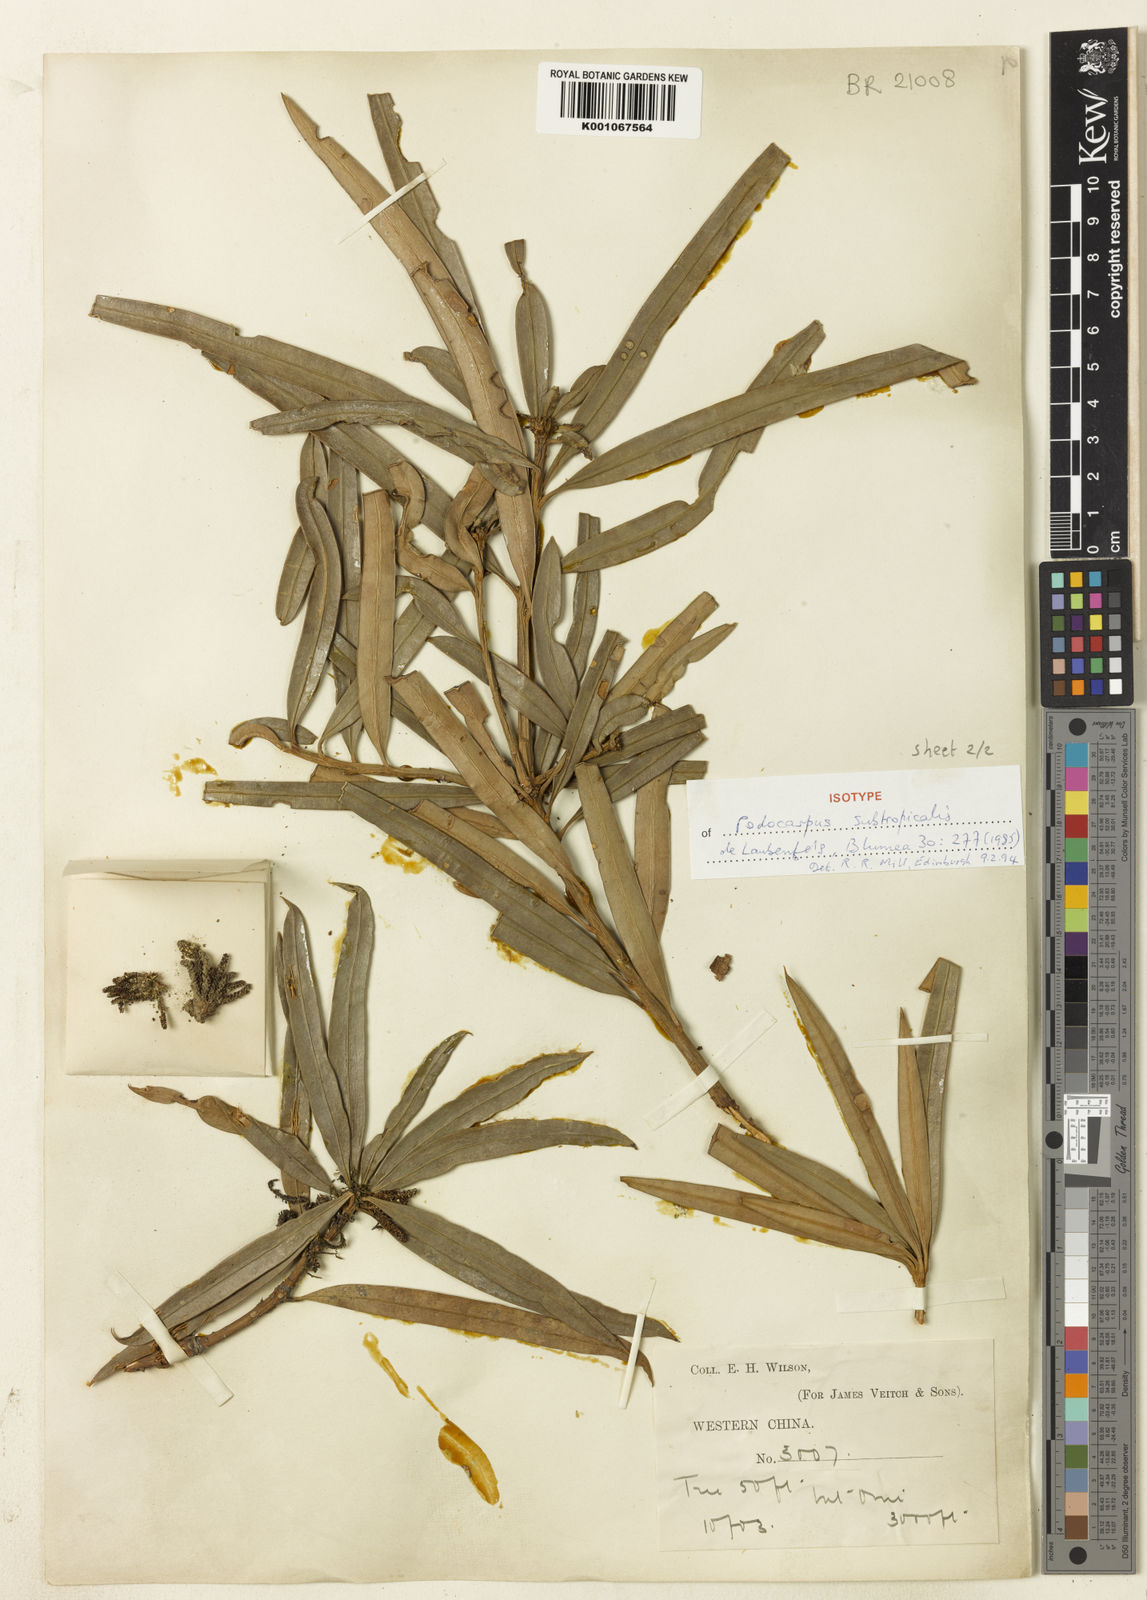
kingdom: Plantae
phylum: Tracheophyta
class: Pinopsida
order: Pinales
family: Podocarpaceae
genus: Podocarpus
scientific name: Podocarpus subtropicalis
